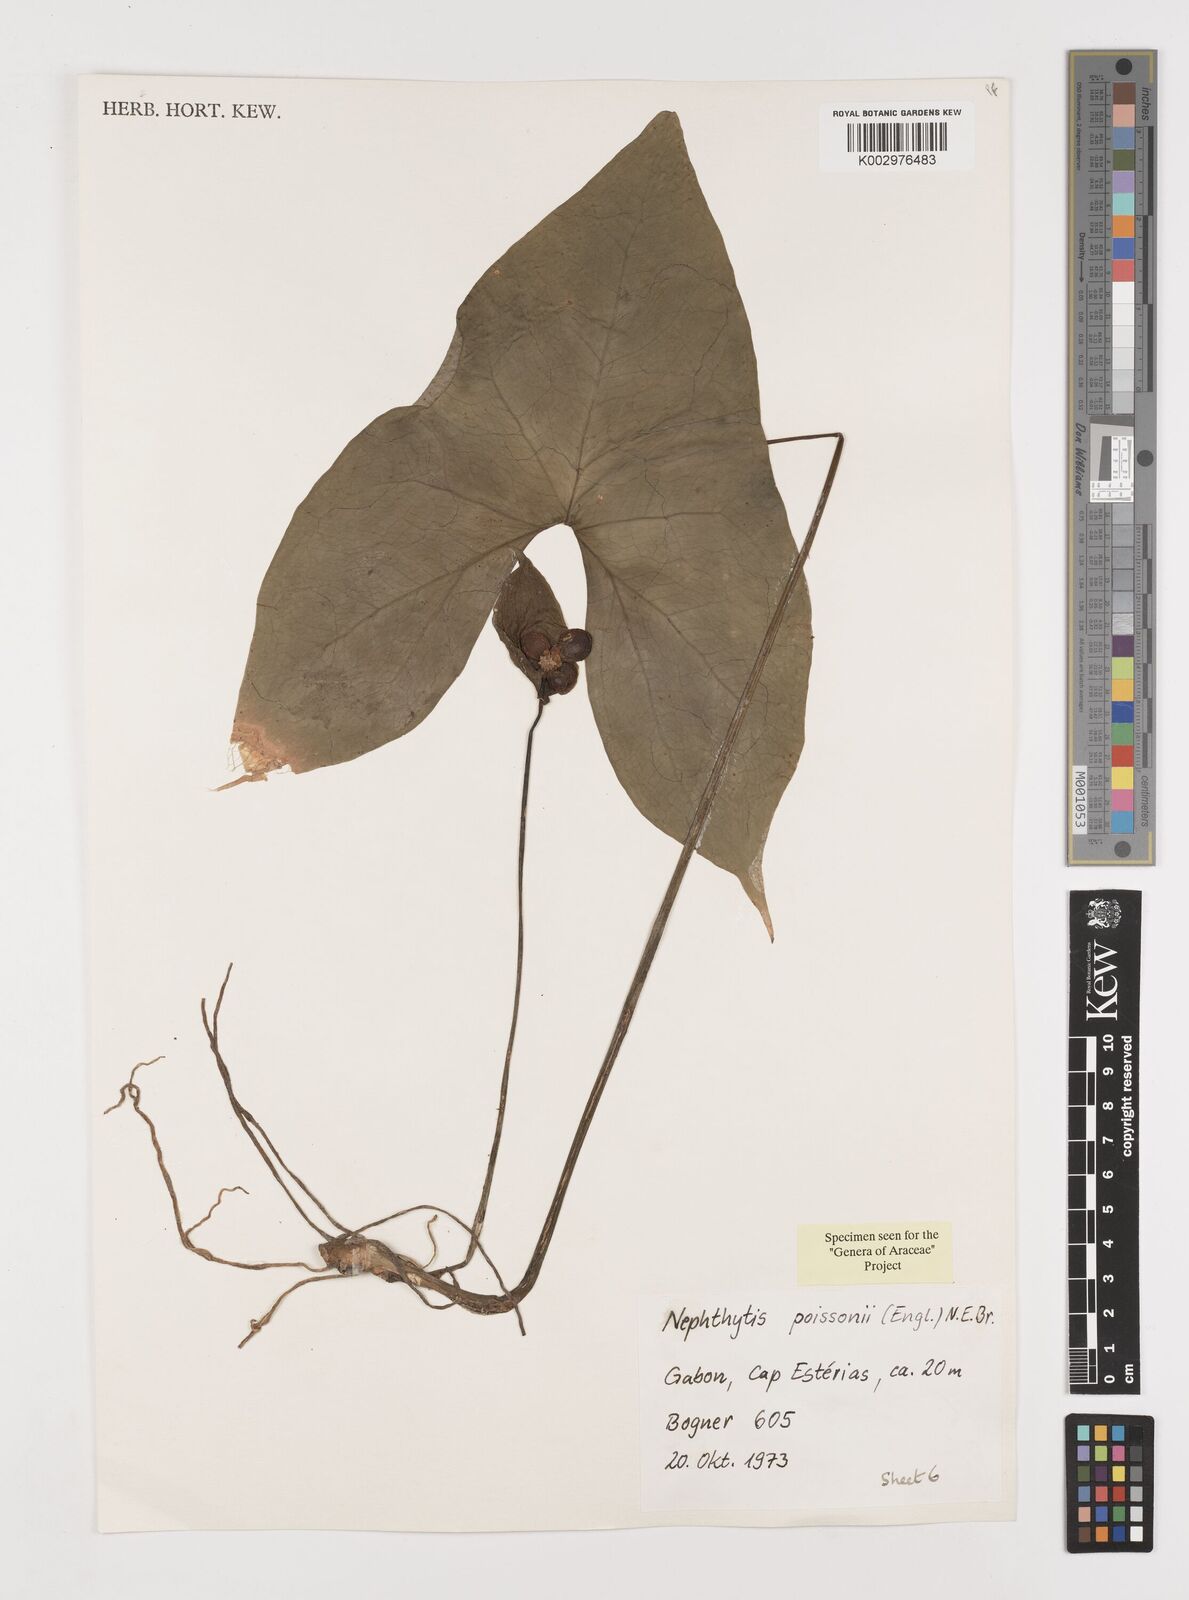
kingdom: Plantae
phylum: Tracheophyta
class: Liliopsida
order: Alismatales
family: Araceae
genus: Nephthytis
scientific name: Nephthytis poissonii
